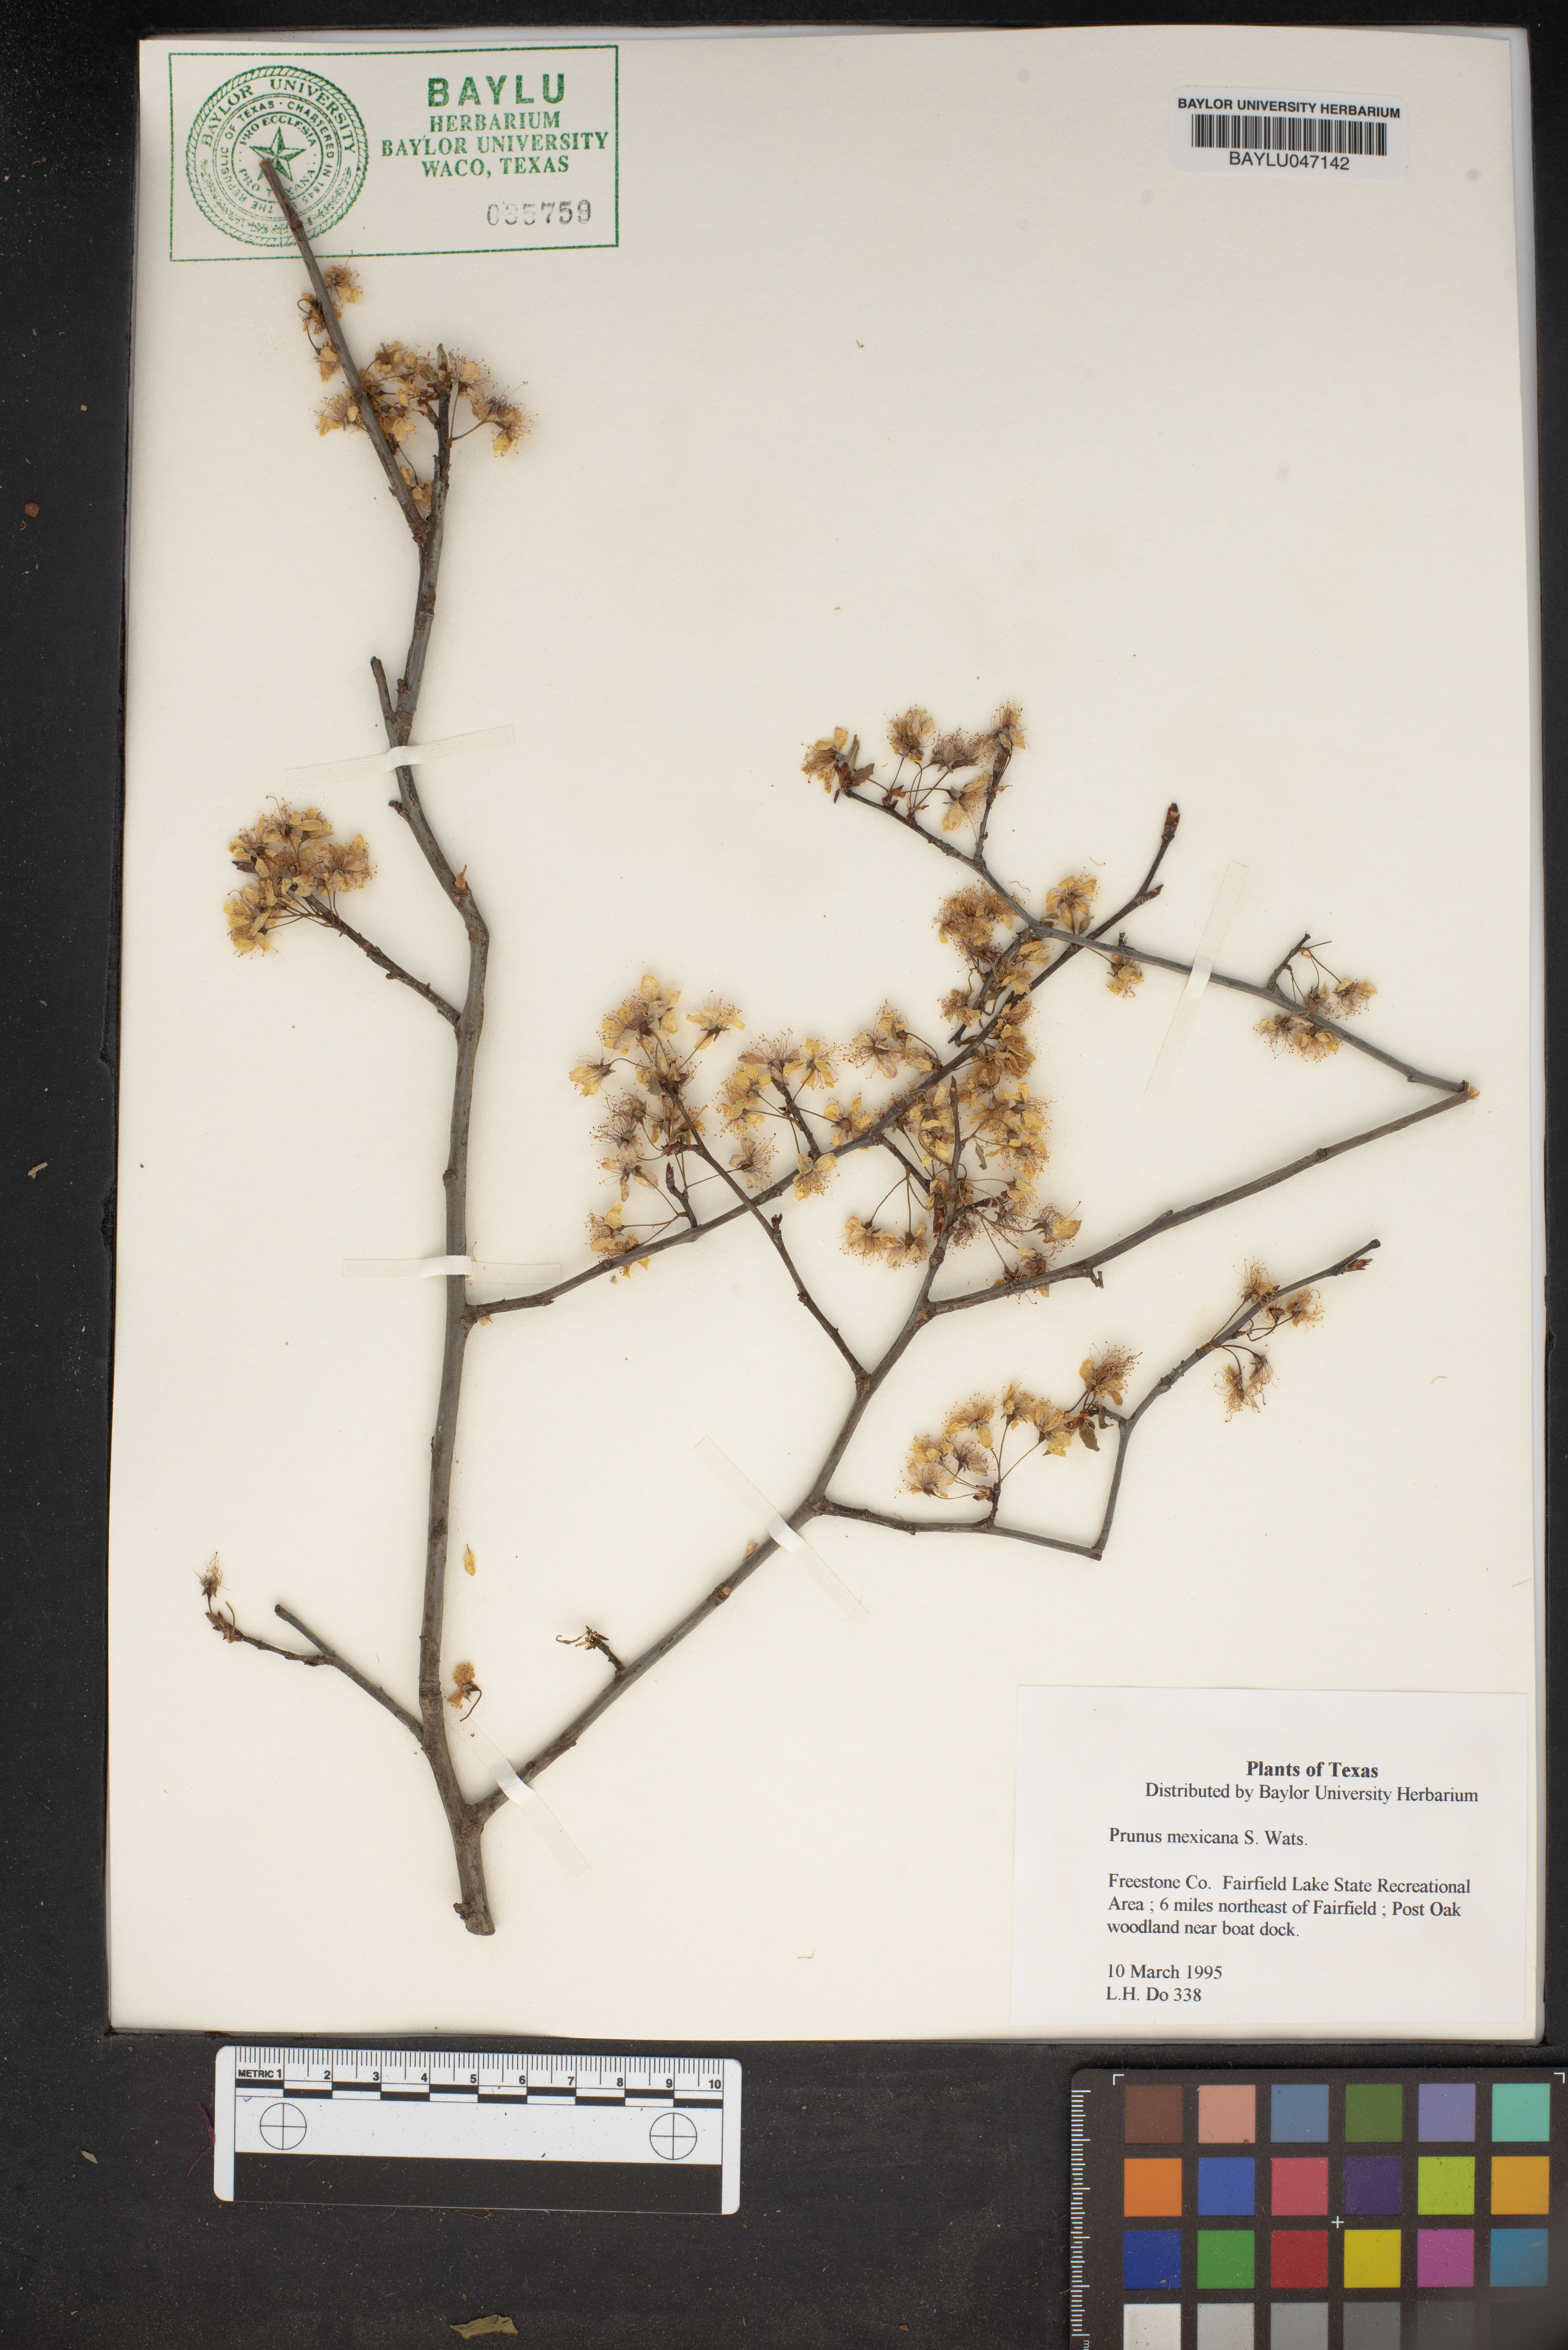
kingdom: Plantae
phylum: Tracheophyta
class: Magnoliopsida
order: Rosales
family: Rosaceae
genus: Prunus
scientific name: Prunus mexicana
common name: Mexican plum
